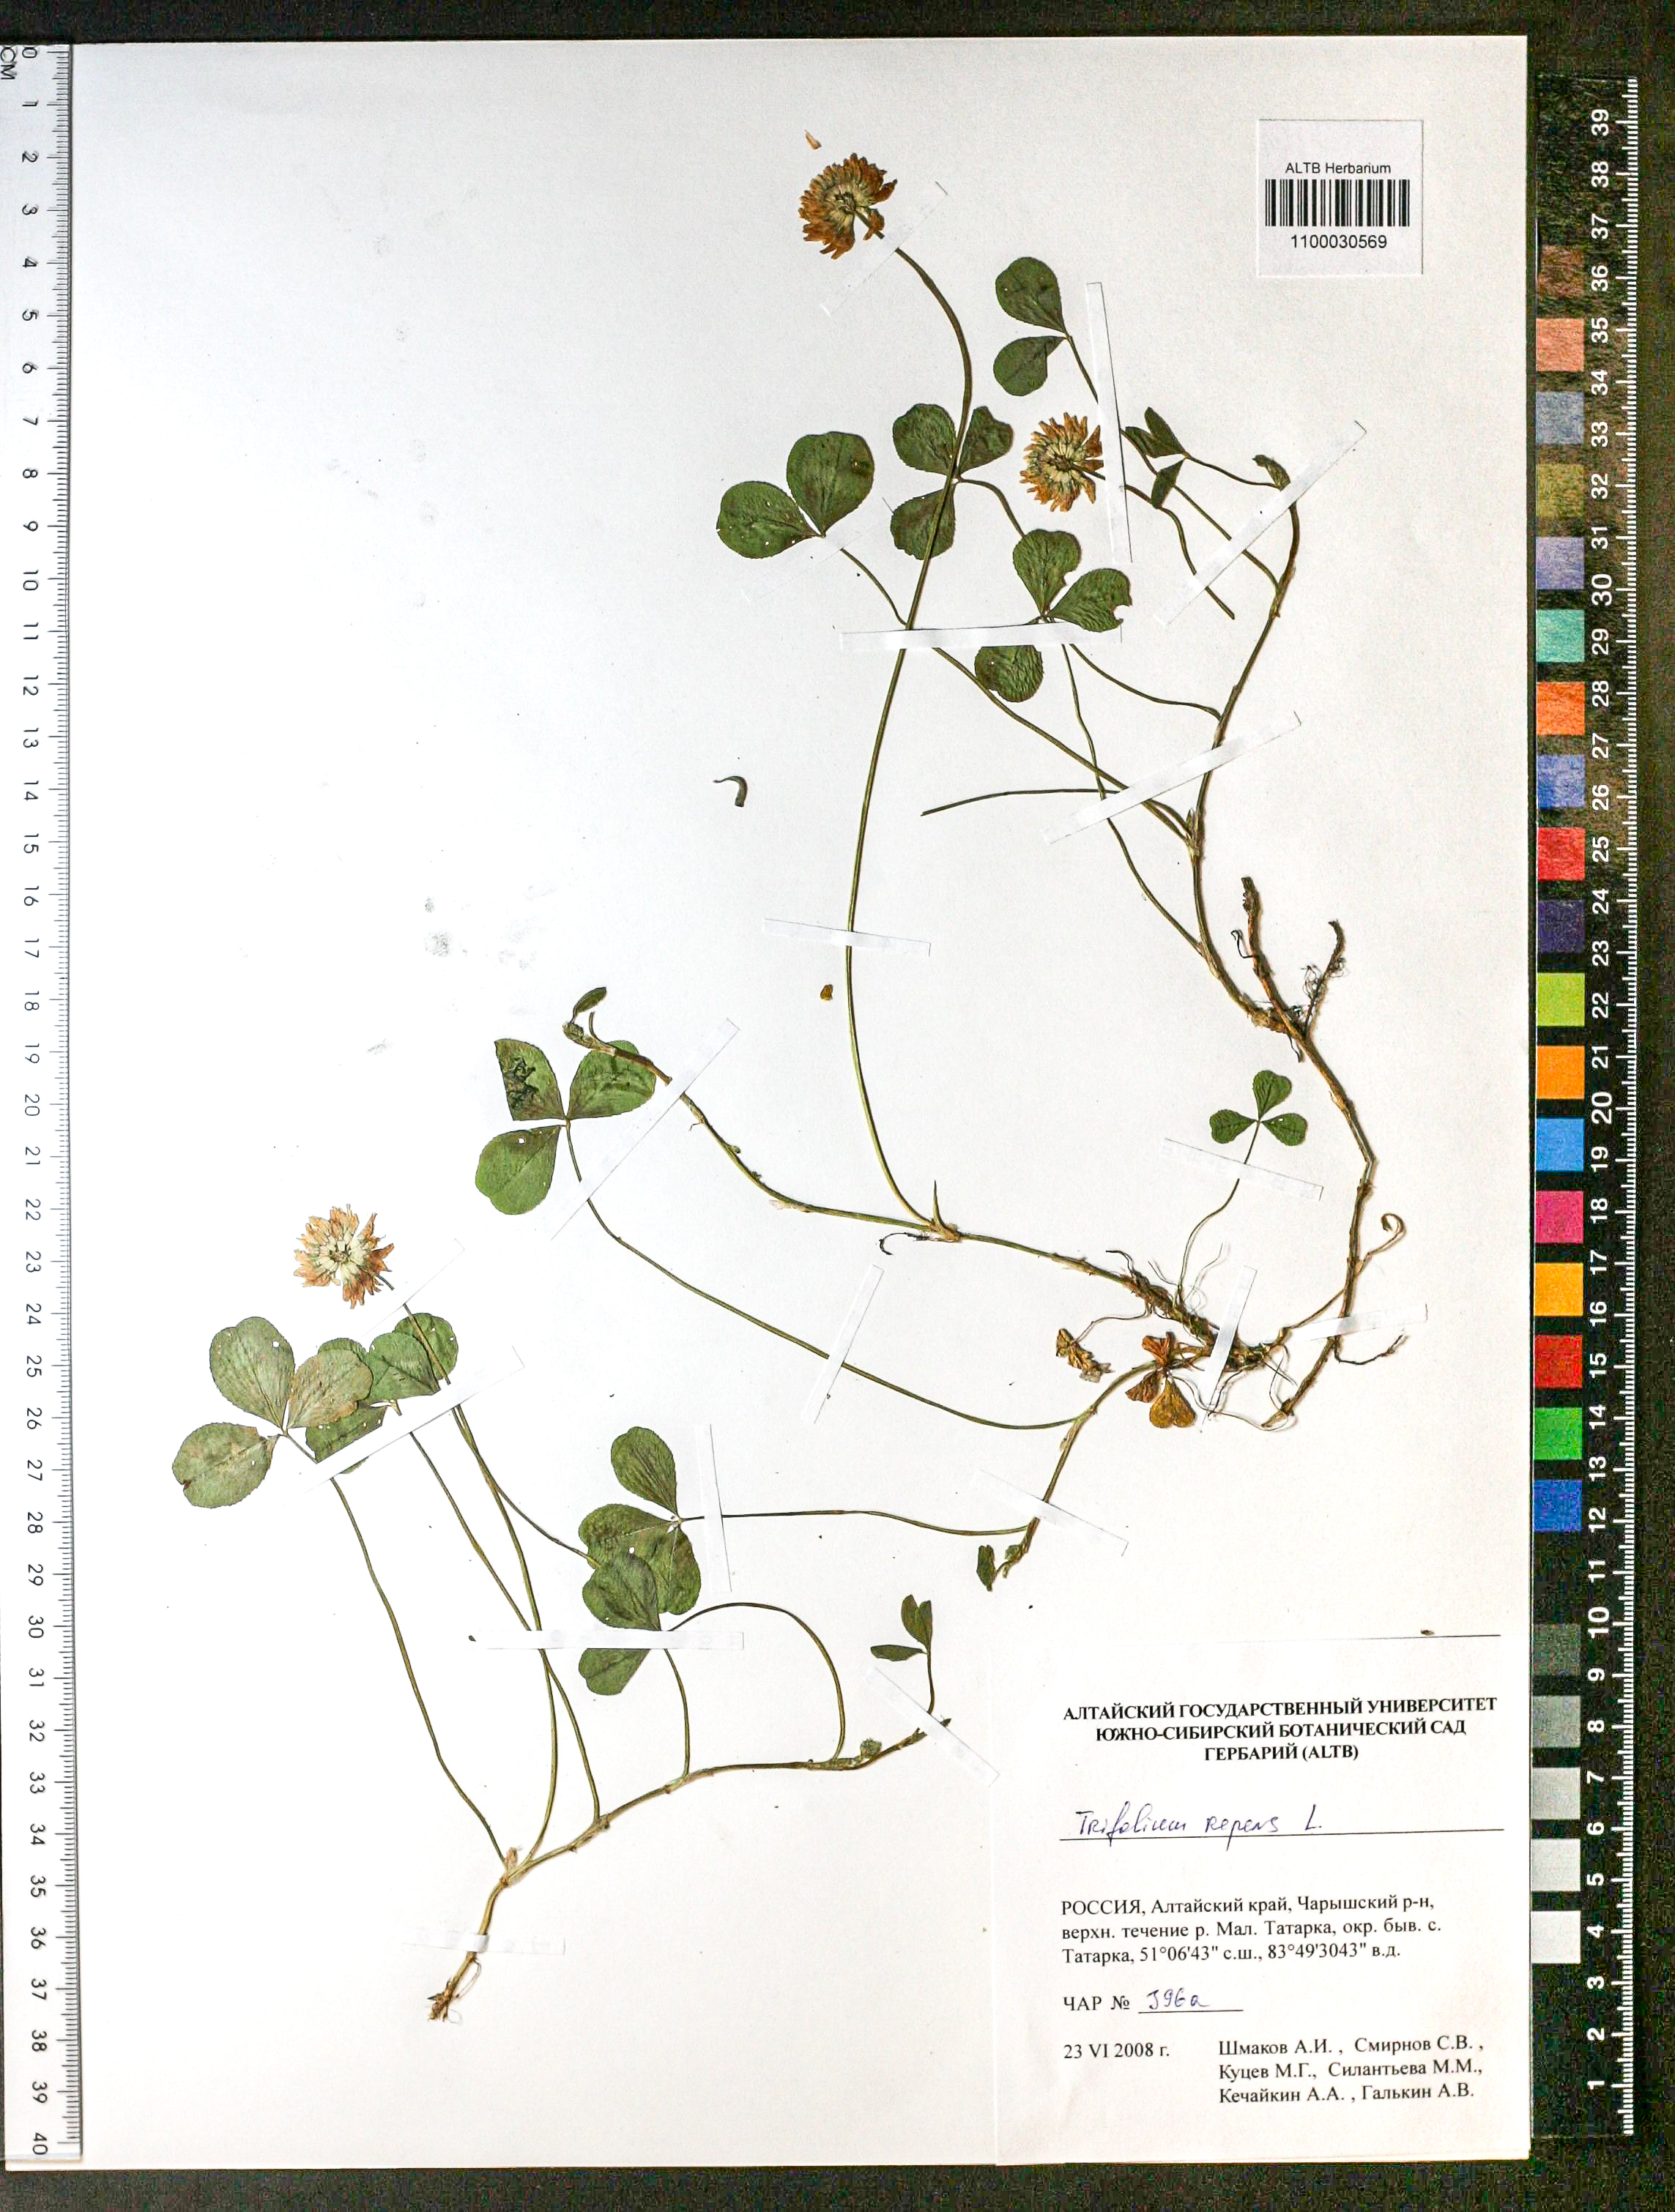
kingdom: Plantae
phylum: Tracheophyta
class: Magnoliopsida
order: Fabales
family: Fabaceae
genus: Trifolium
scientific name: Trifolium repens
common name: White clover
